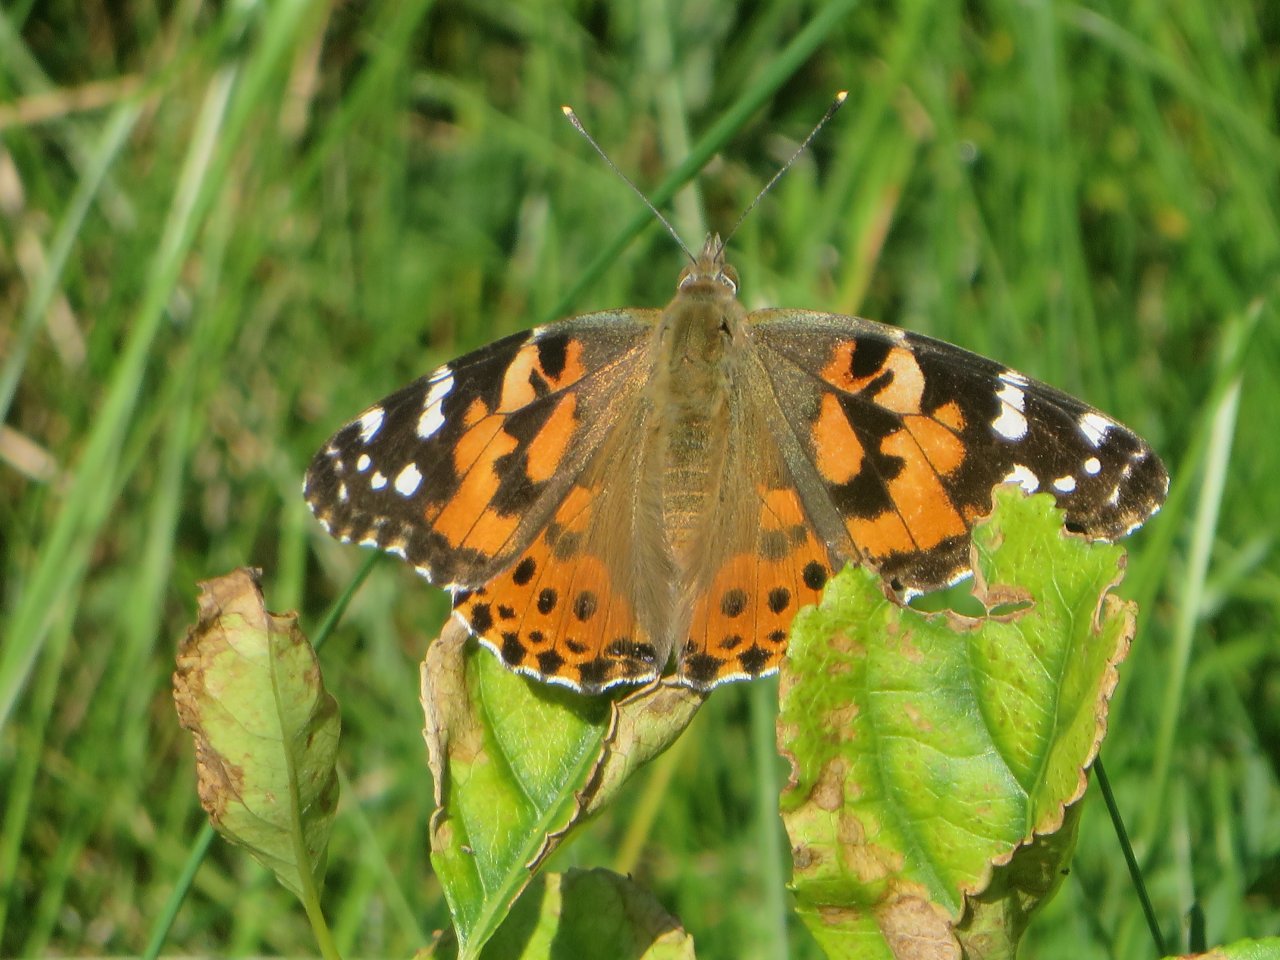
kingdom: Animalia
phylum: Arthropoda
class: Insecta
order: Lepidoptera
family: Nymphalidae
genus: Vanessa
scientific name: Vanessa cardui
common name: Painted Lady
